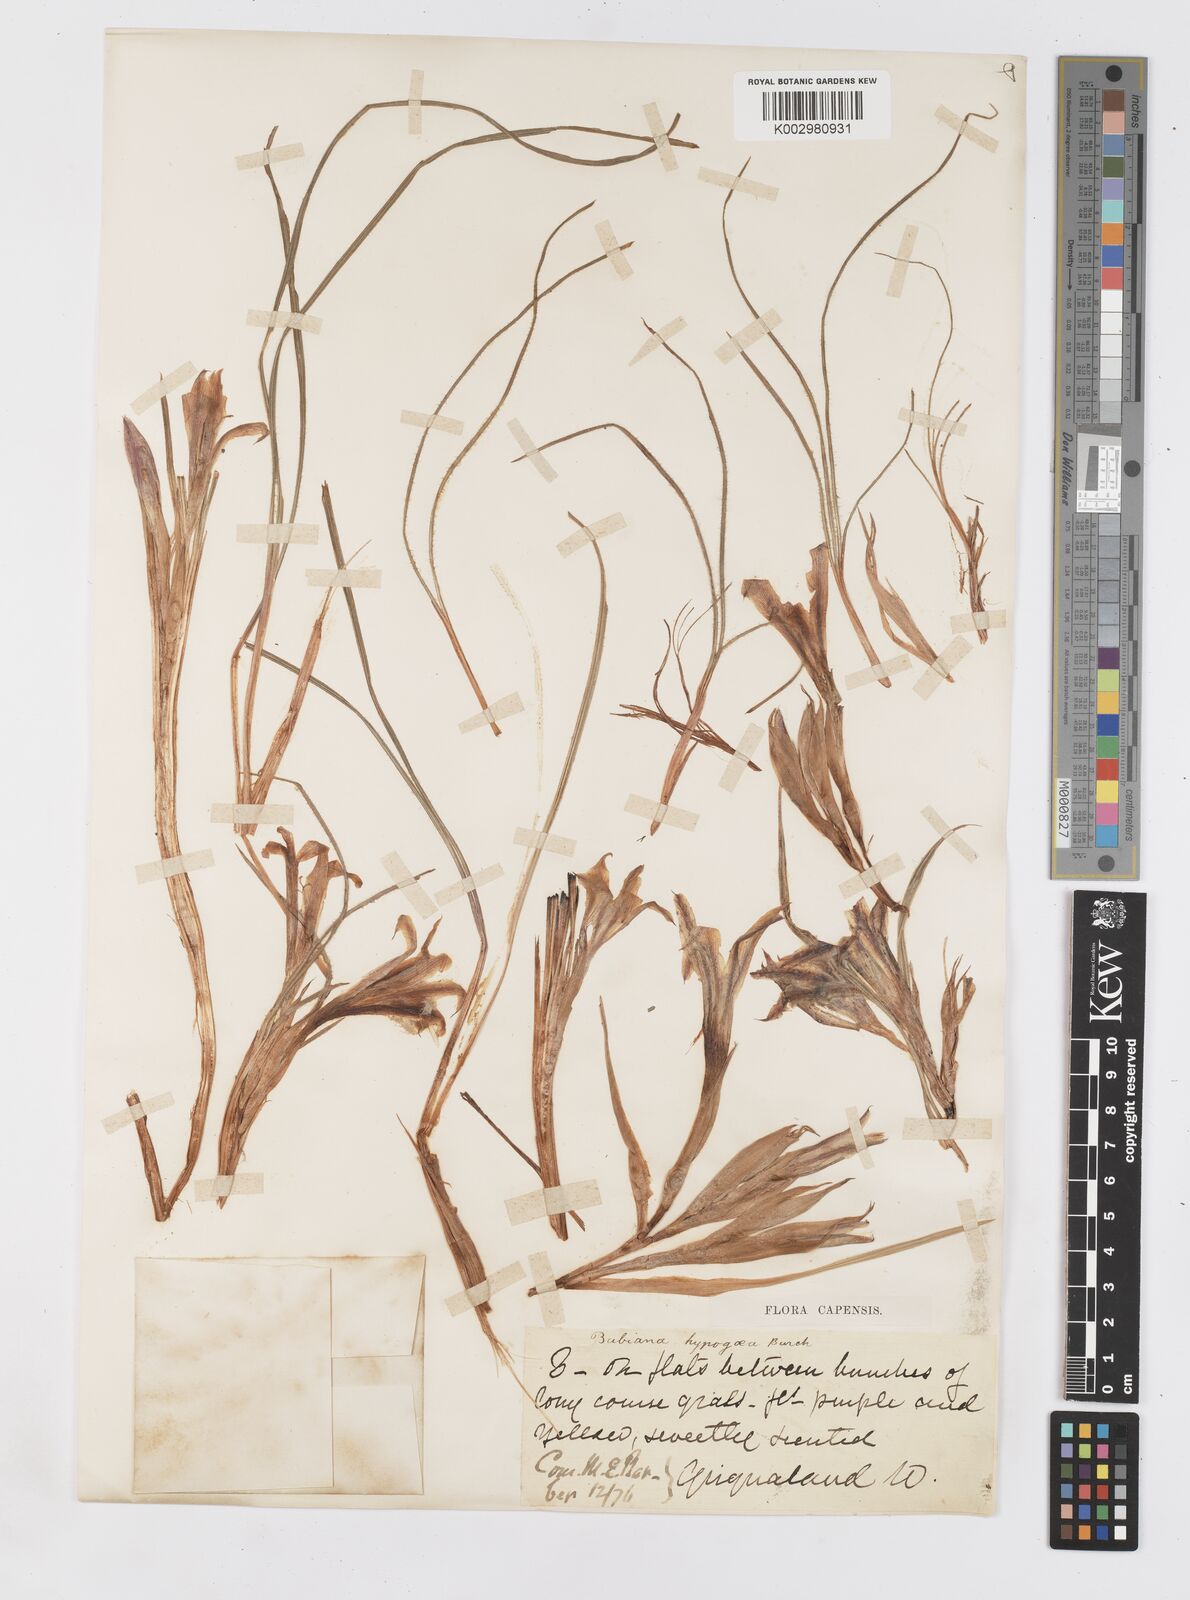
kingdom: Plantae
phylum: Tracheophyta
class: Liliopsida
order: Asparagales
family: Iridaceae
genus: Babiana
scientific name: Babiana hypogaea
